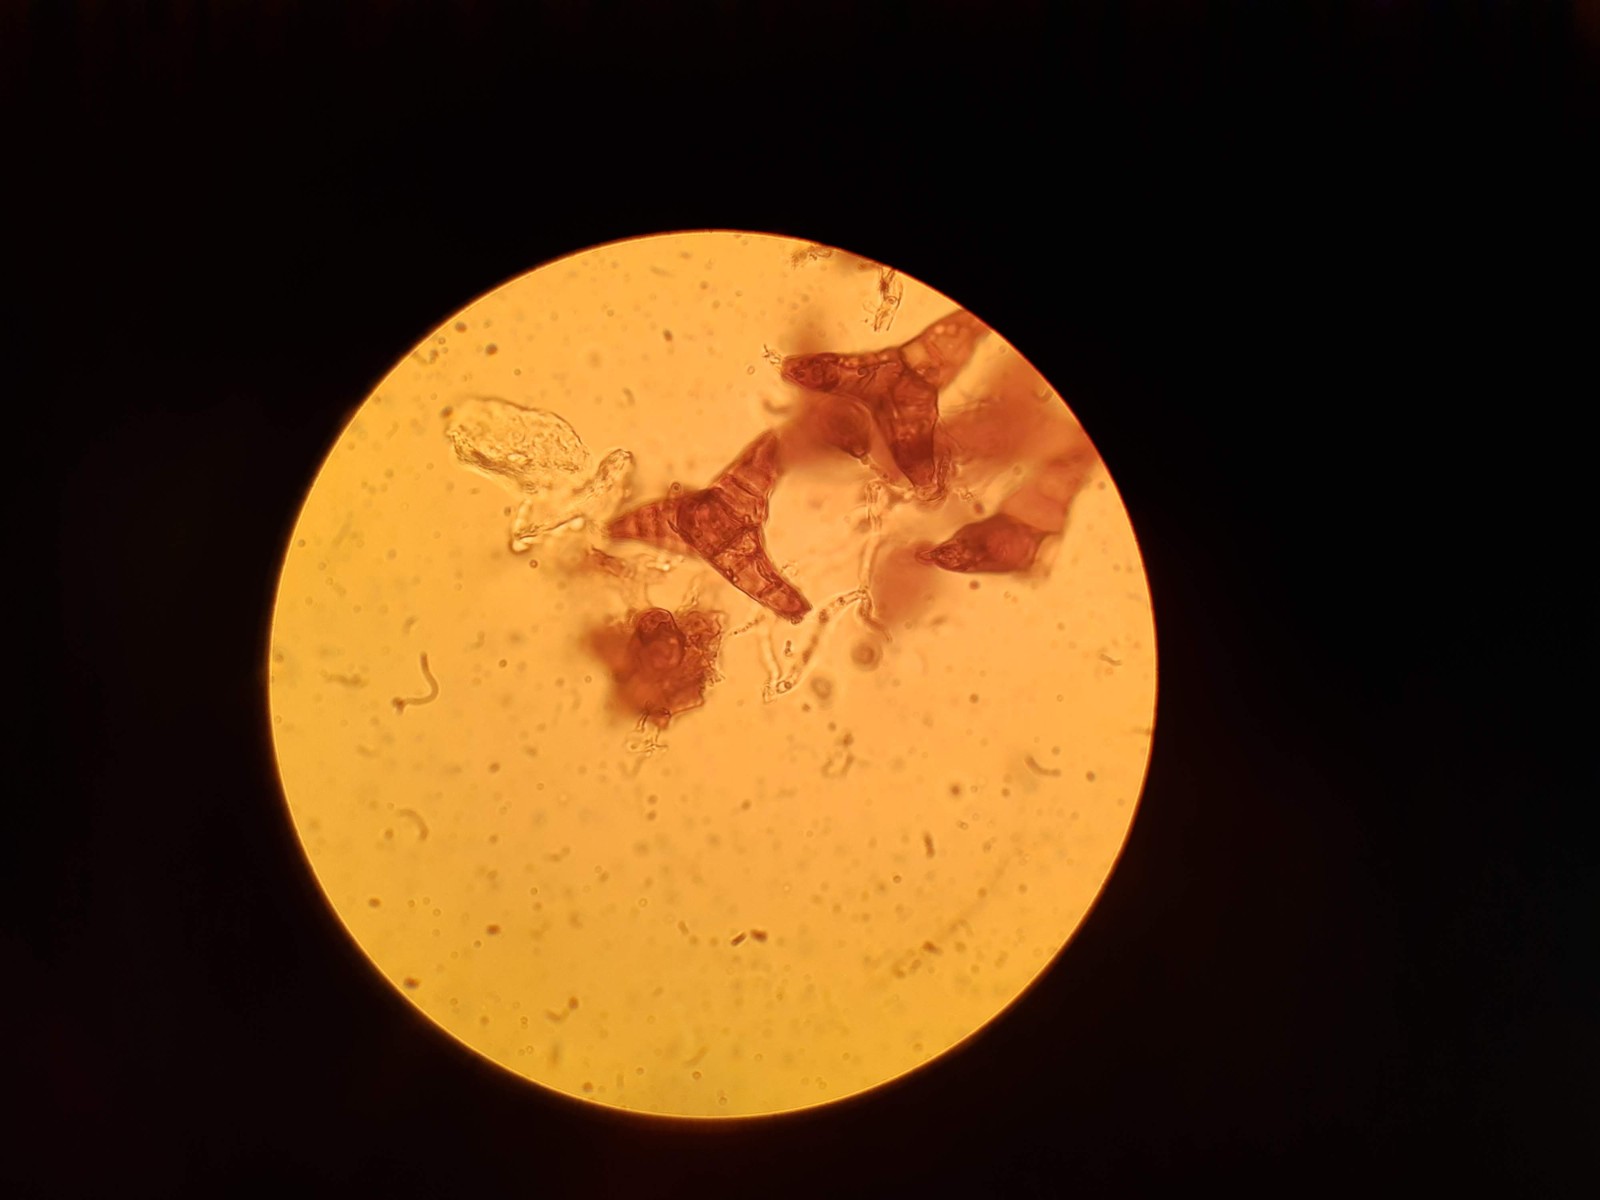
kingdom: Fungi
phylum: Ascomycota
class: Sordariomycetes
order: Diaporthales
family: Asterosporiaceae
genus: Asterosporium
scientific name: Asterosporium asterospermum
